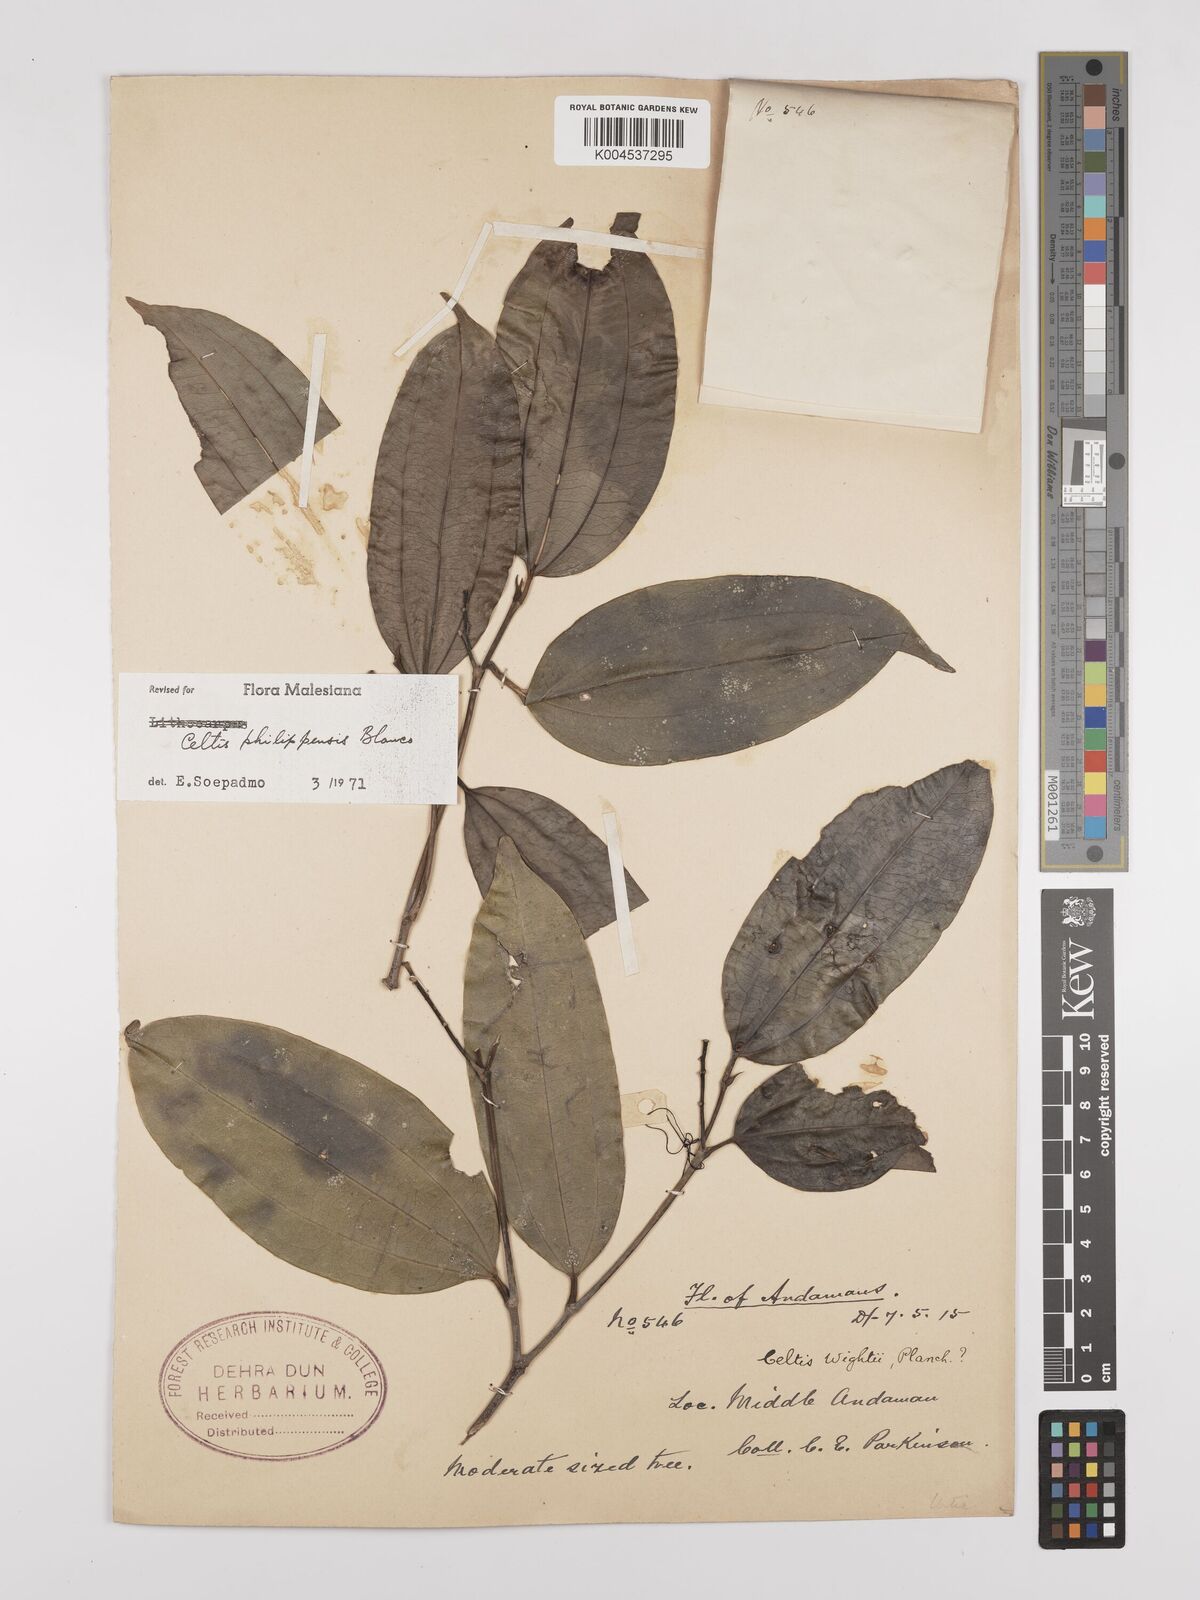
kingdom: Plantae
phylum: Tracheophyta
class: Magnoliopsida
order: Rosales
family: Cannabaceae
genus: Celtis
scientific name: Celtis philippensis
